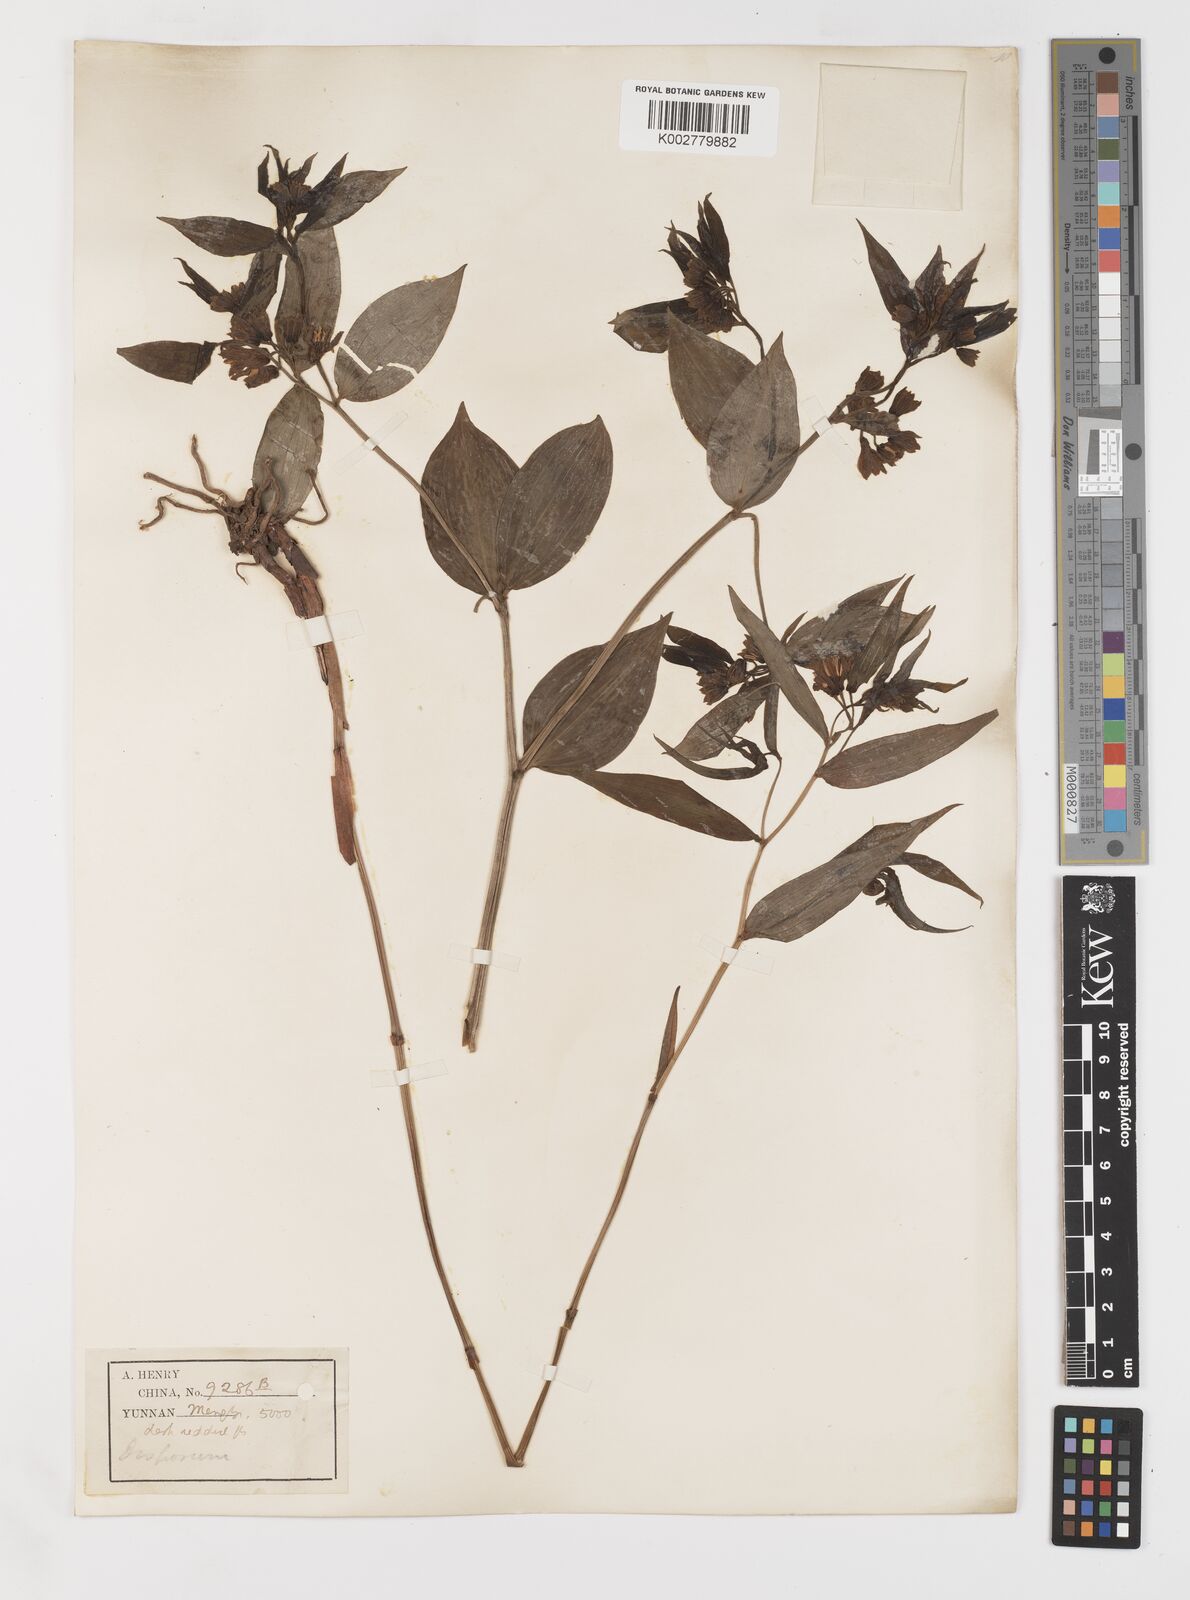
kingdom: Plantae
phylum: Tracheophyta
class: Liliopsida
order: Liliales
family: Colchicaceae
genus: Disporum
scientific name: Disporum
